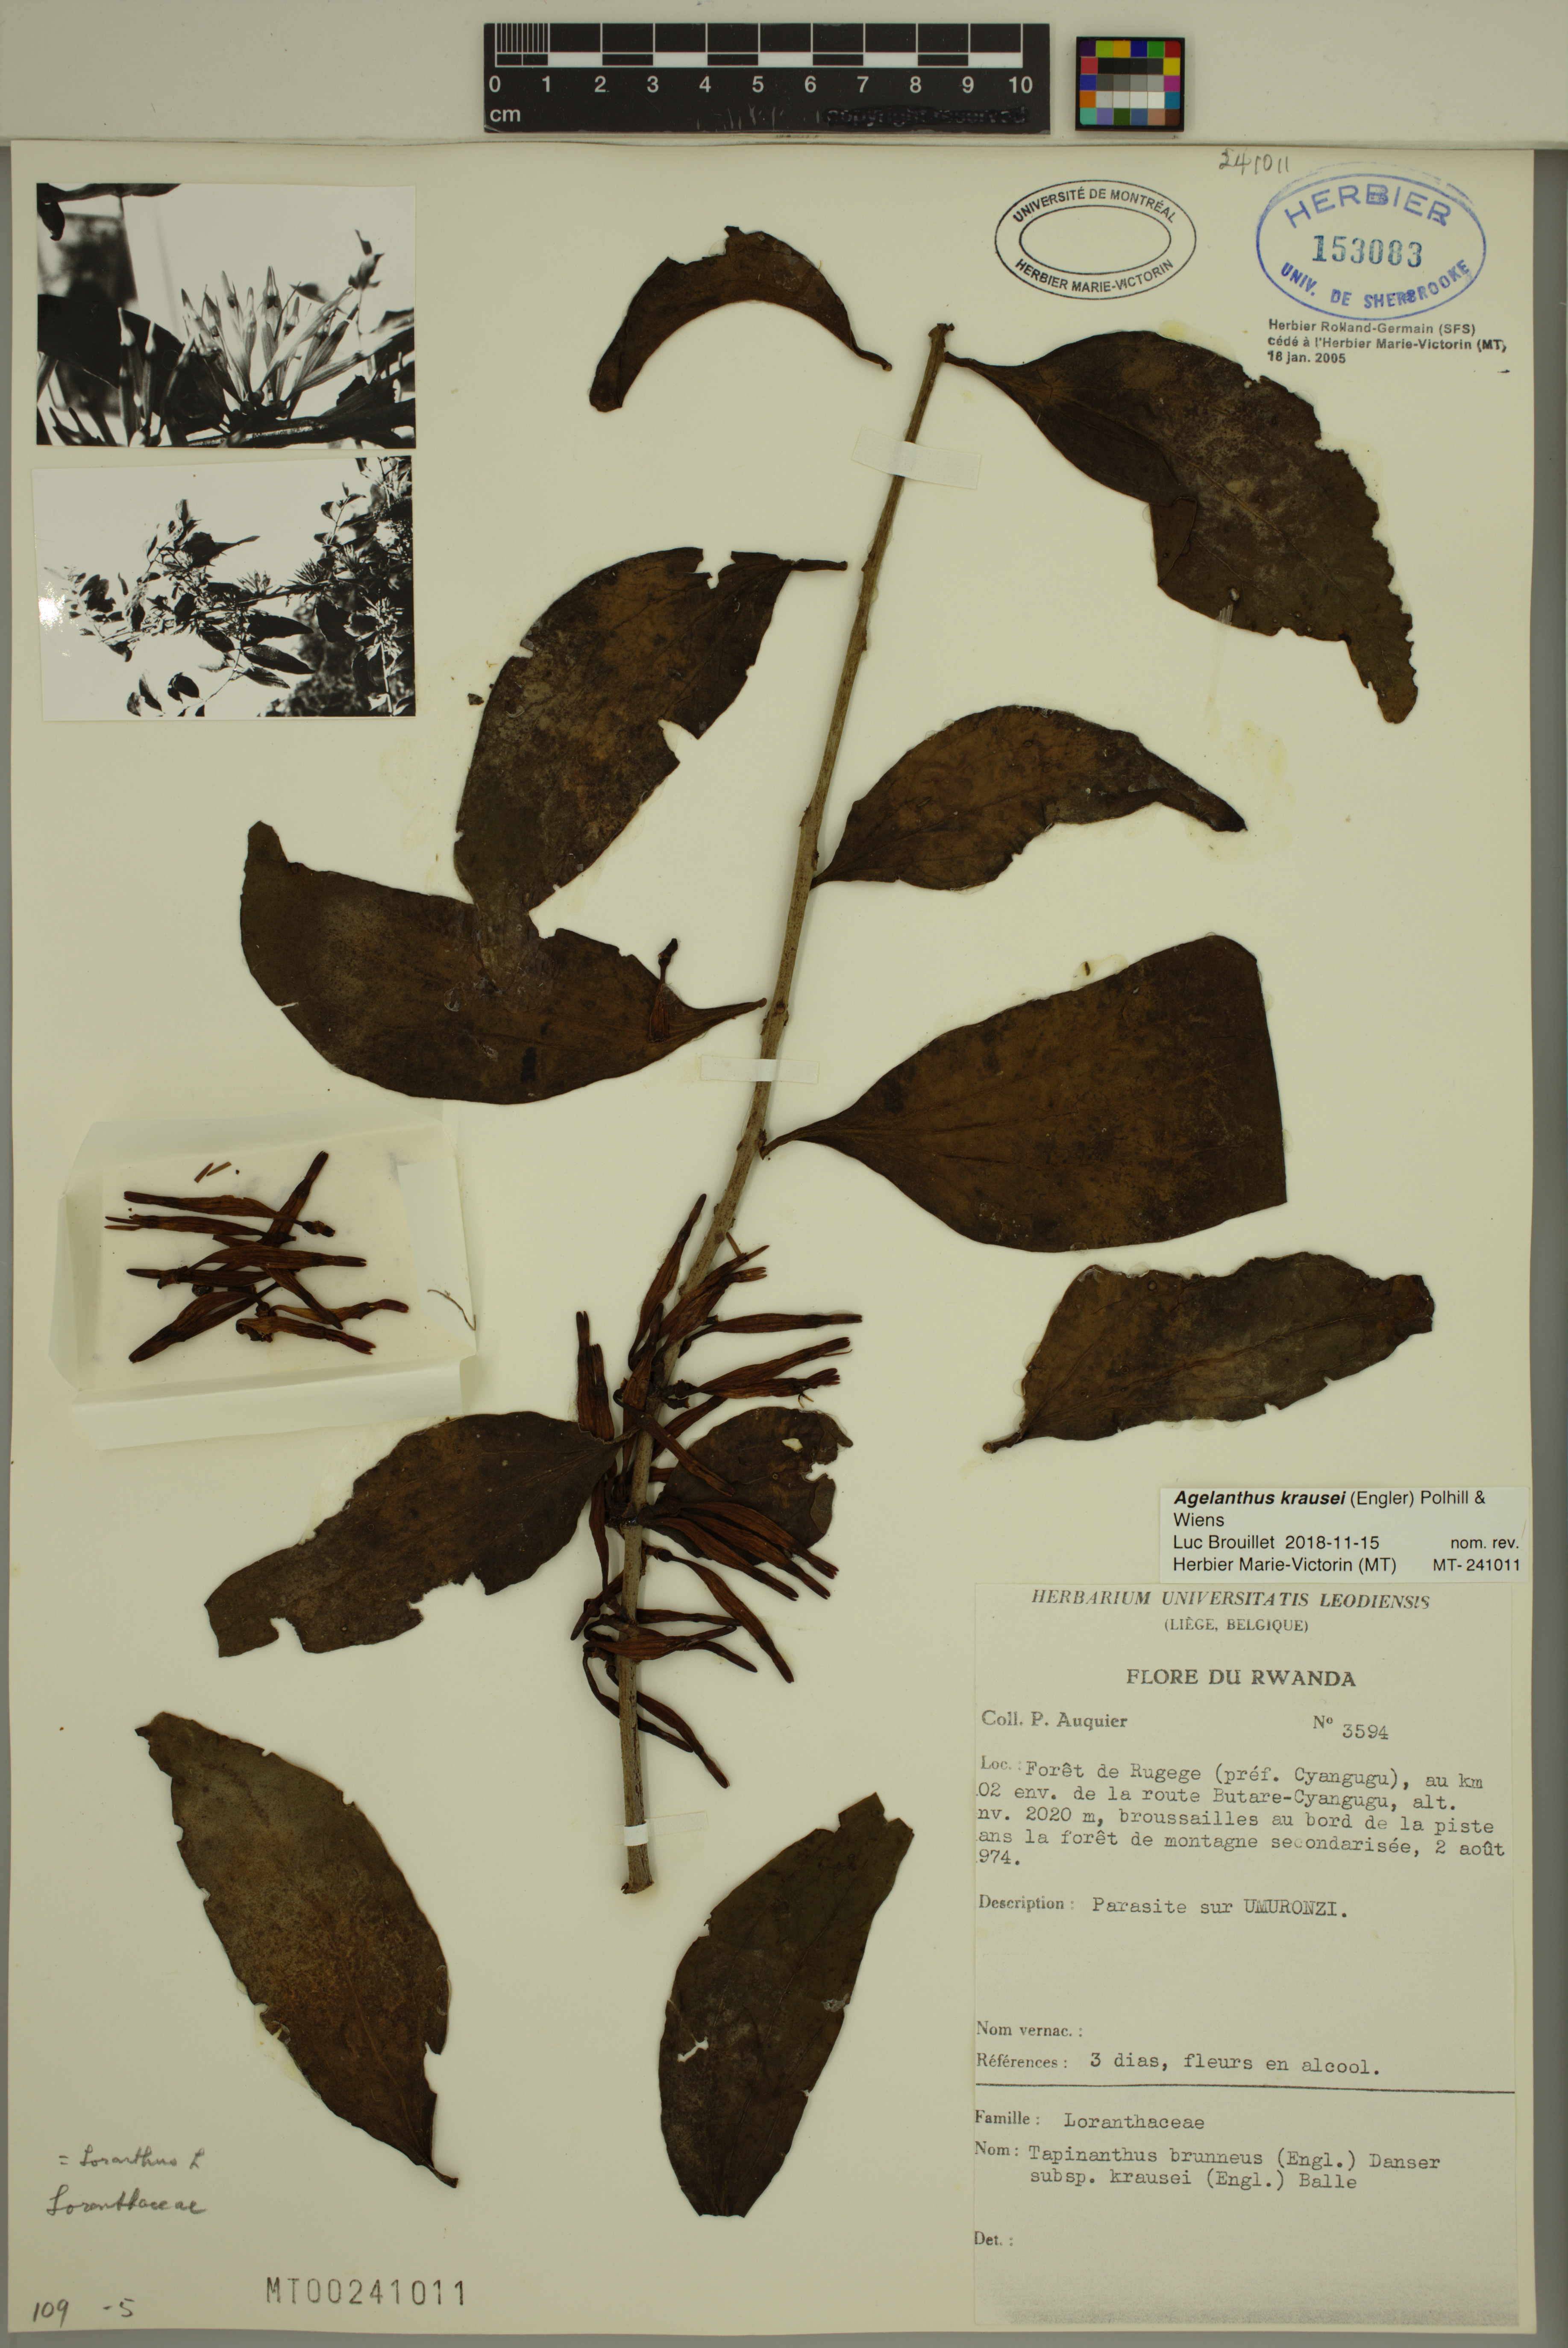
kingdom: Plantae
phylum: Tracheophyta
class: Magnoliopsida
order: Santalales
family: Loranthaceae
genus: Agelanthus
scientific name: Agelanthus krausei
